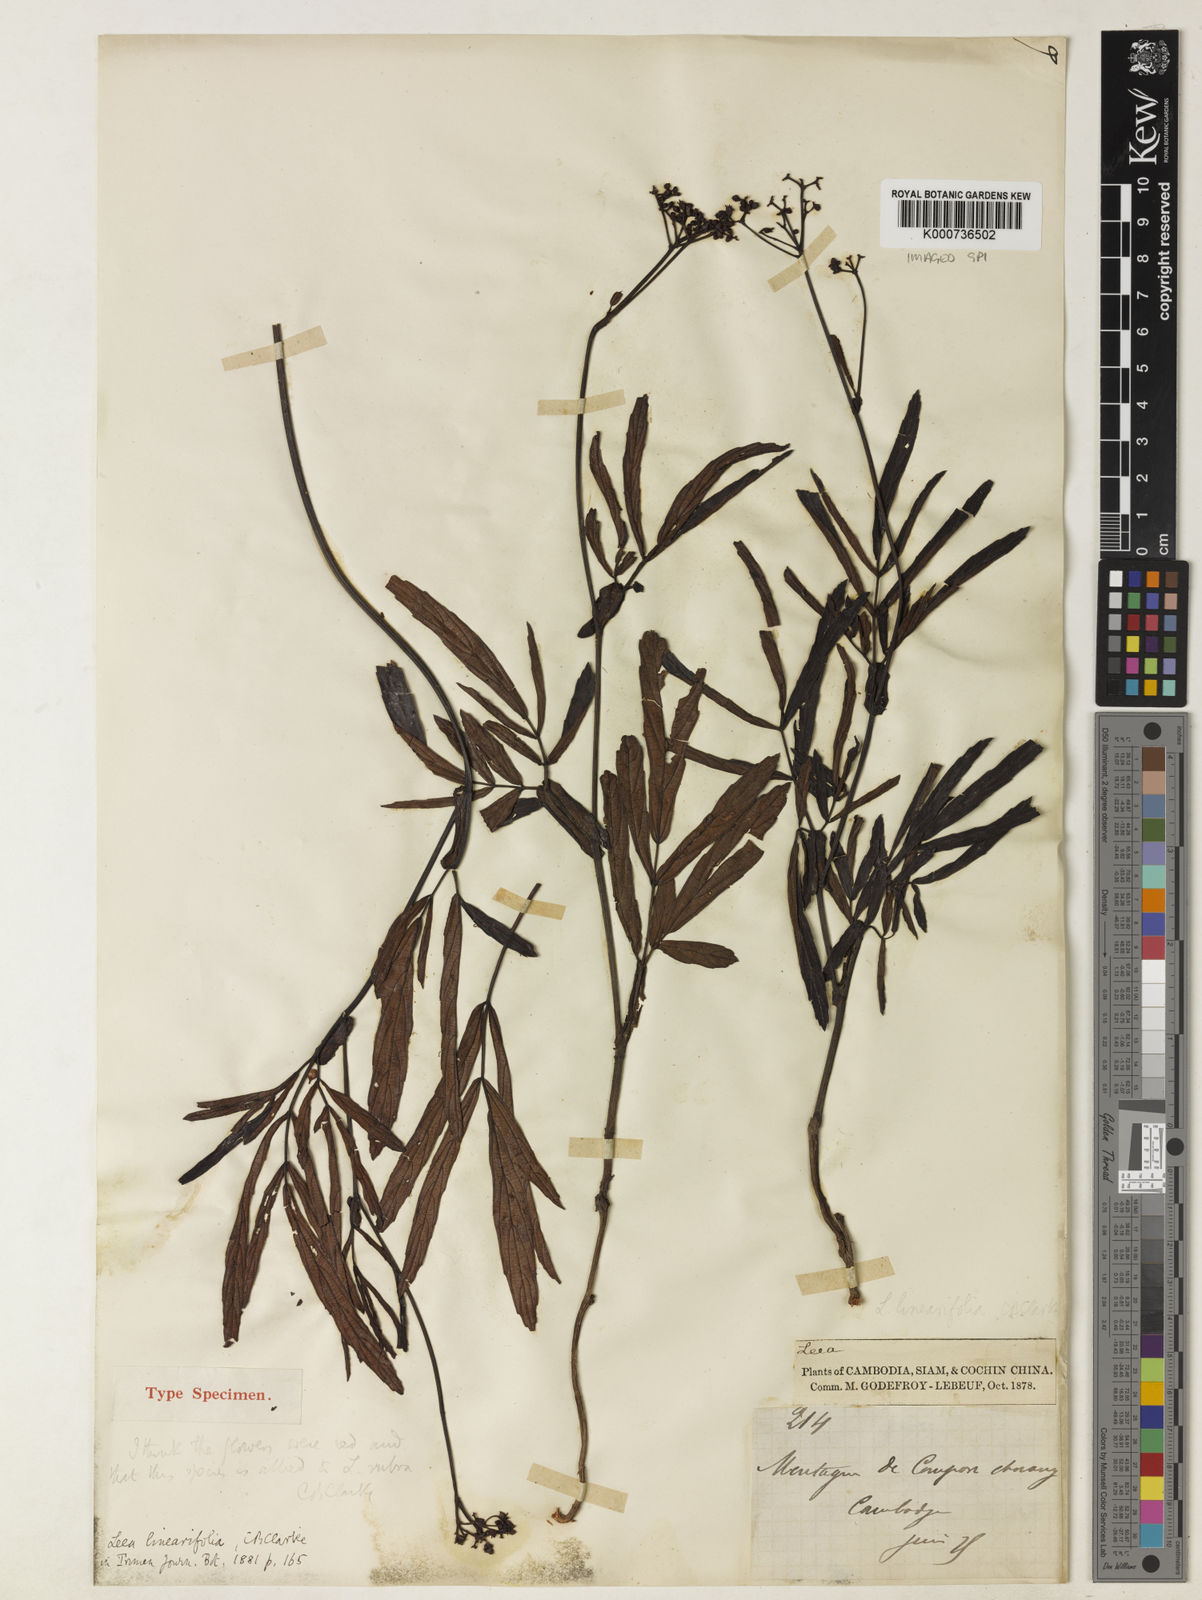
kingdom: Plantae
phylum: Tracheophyta
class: Magnoliopsida
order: Vitales
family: Vitaceae
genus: Leea
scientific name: Leea rubra
